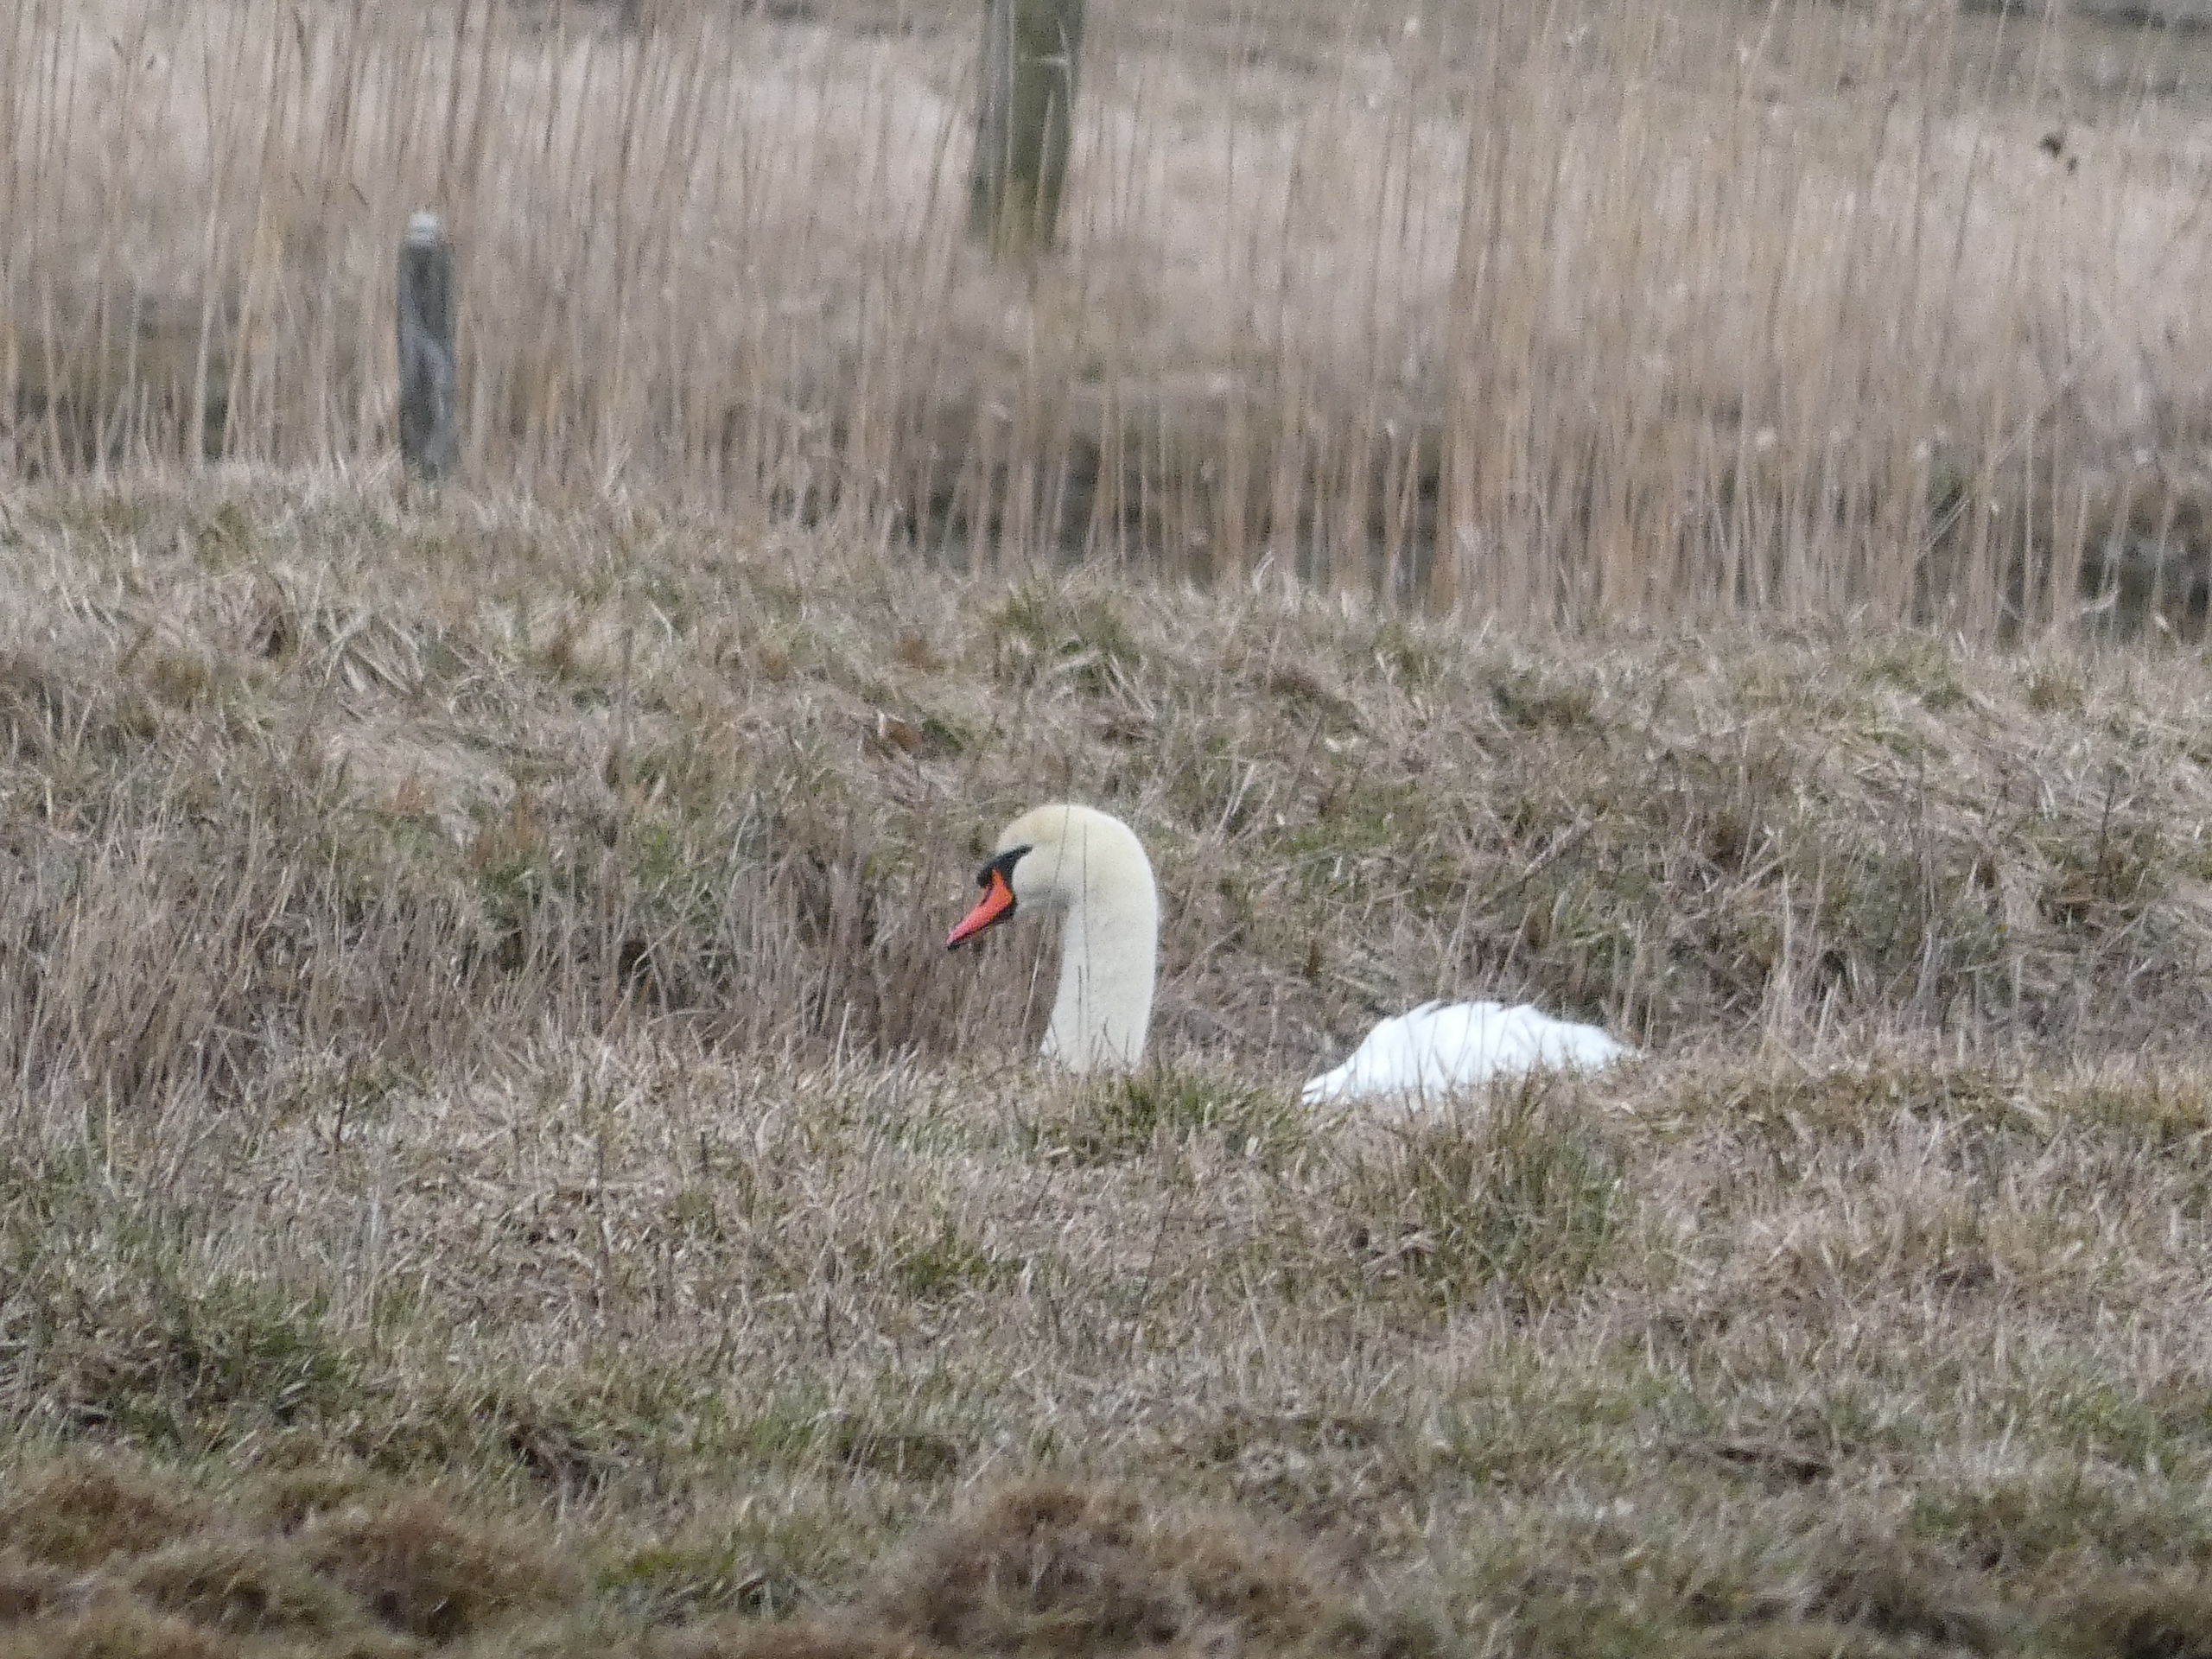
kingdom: Animalia
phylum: Chordata
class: Aves
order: Anseriformes
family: Anatidae
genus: Cygnus
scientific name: Cygnus olor
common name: Knopsvane
